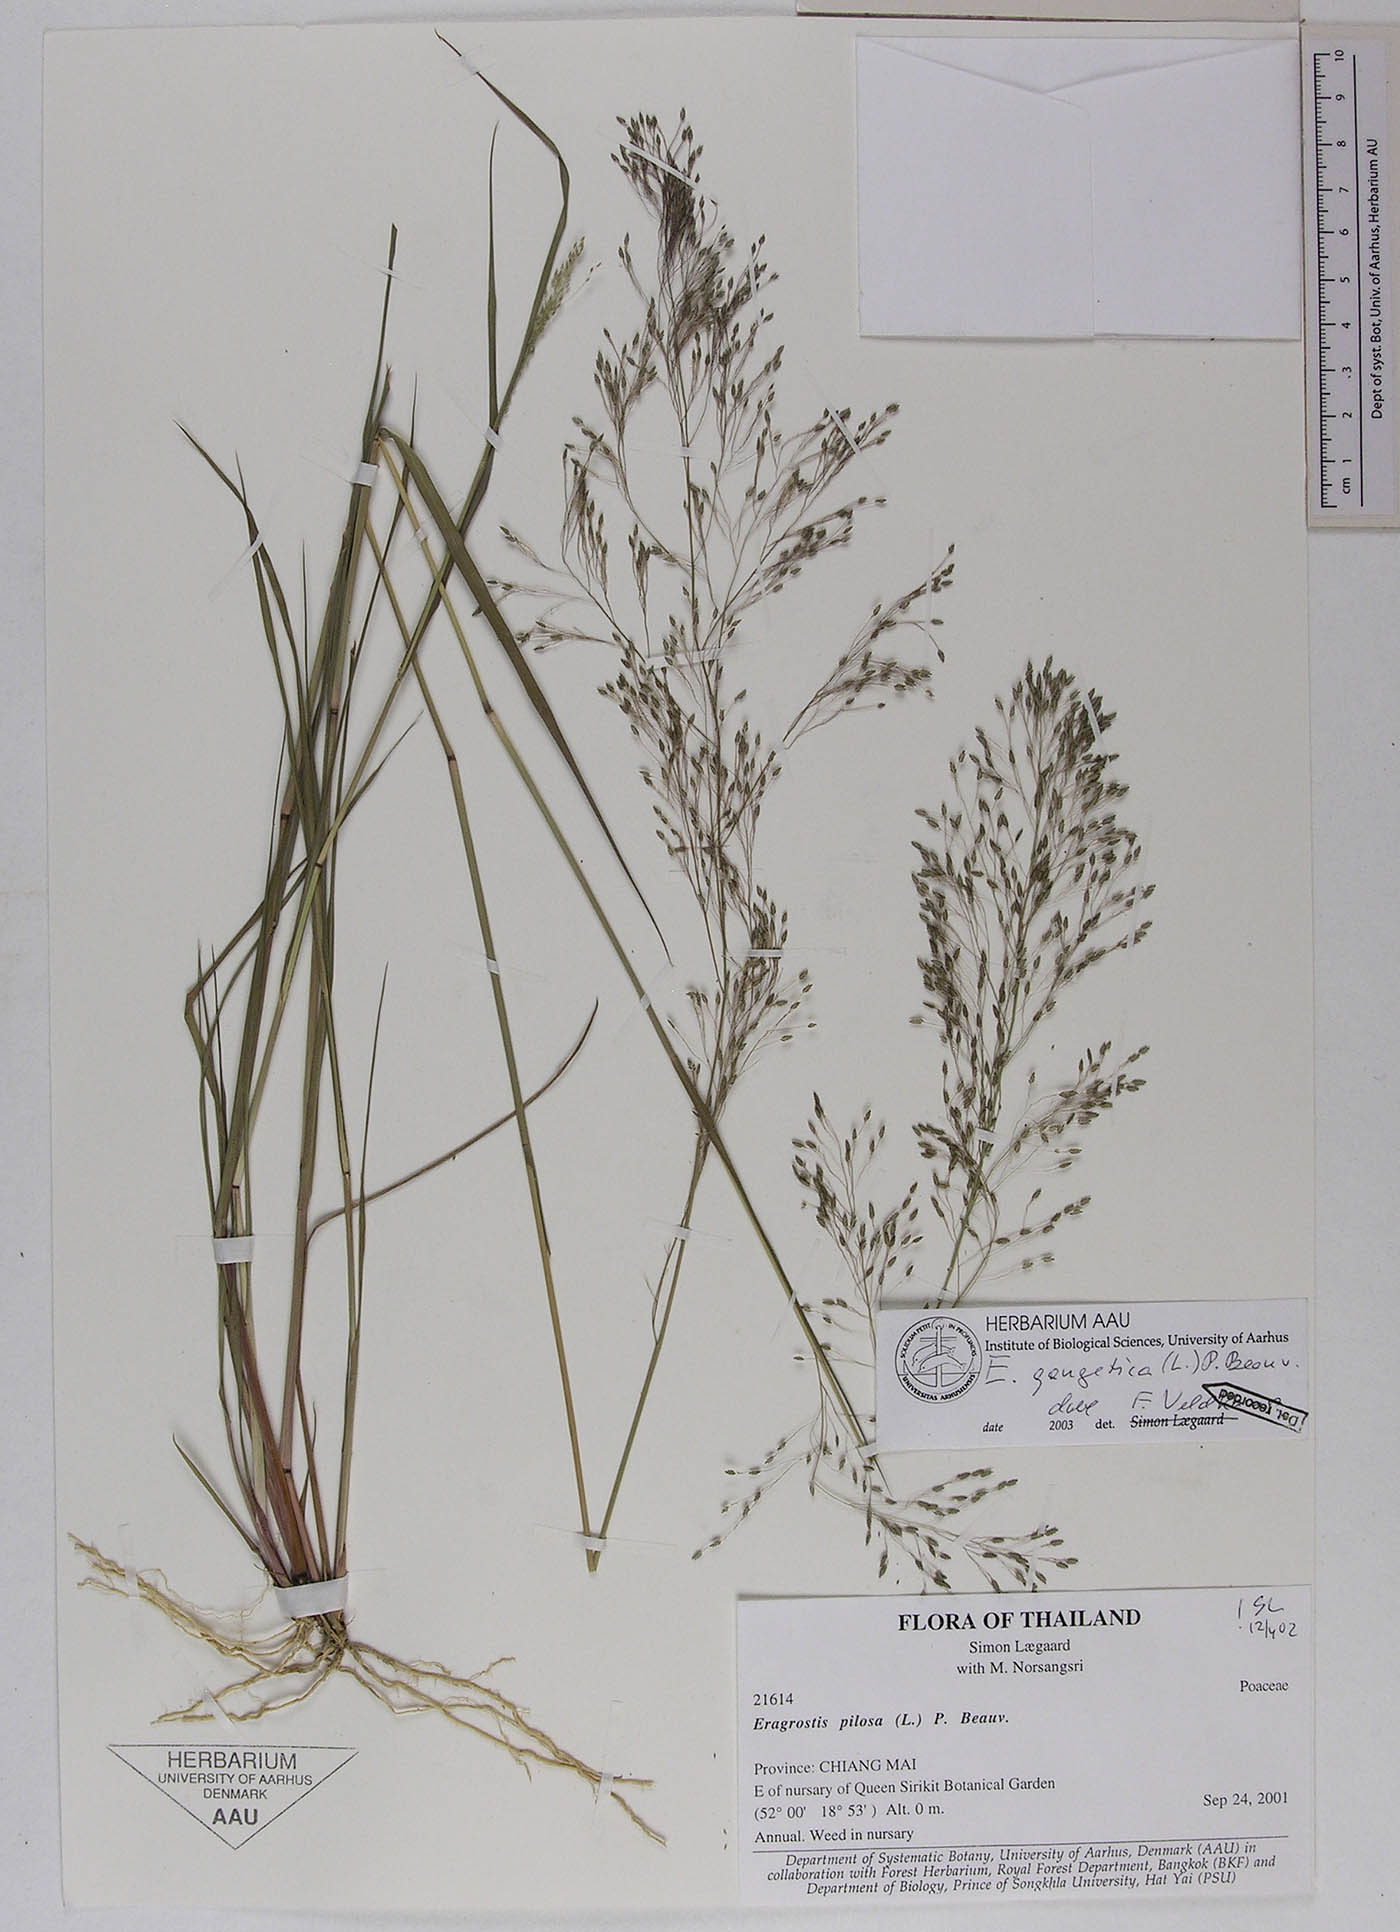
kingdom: Plantae
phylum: Tracheophyta
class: Liliopsida
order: Poales
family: Poaceae
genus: Eragrostis
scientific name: Eragrostis gangetica
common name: Slimflower lovegrass
